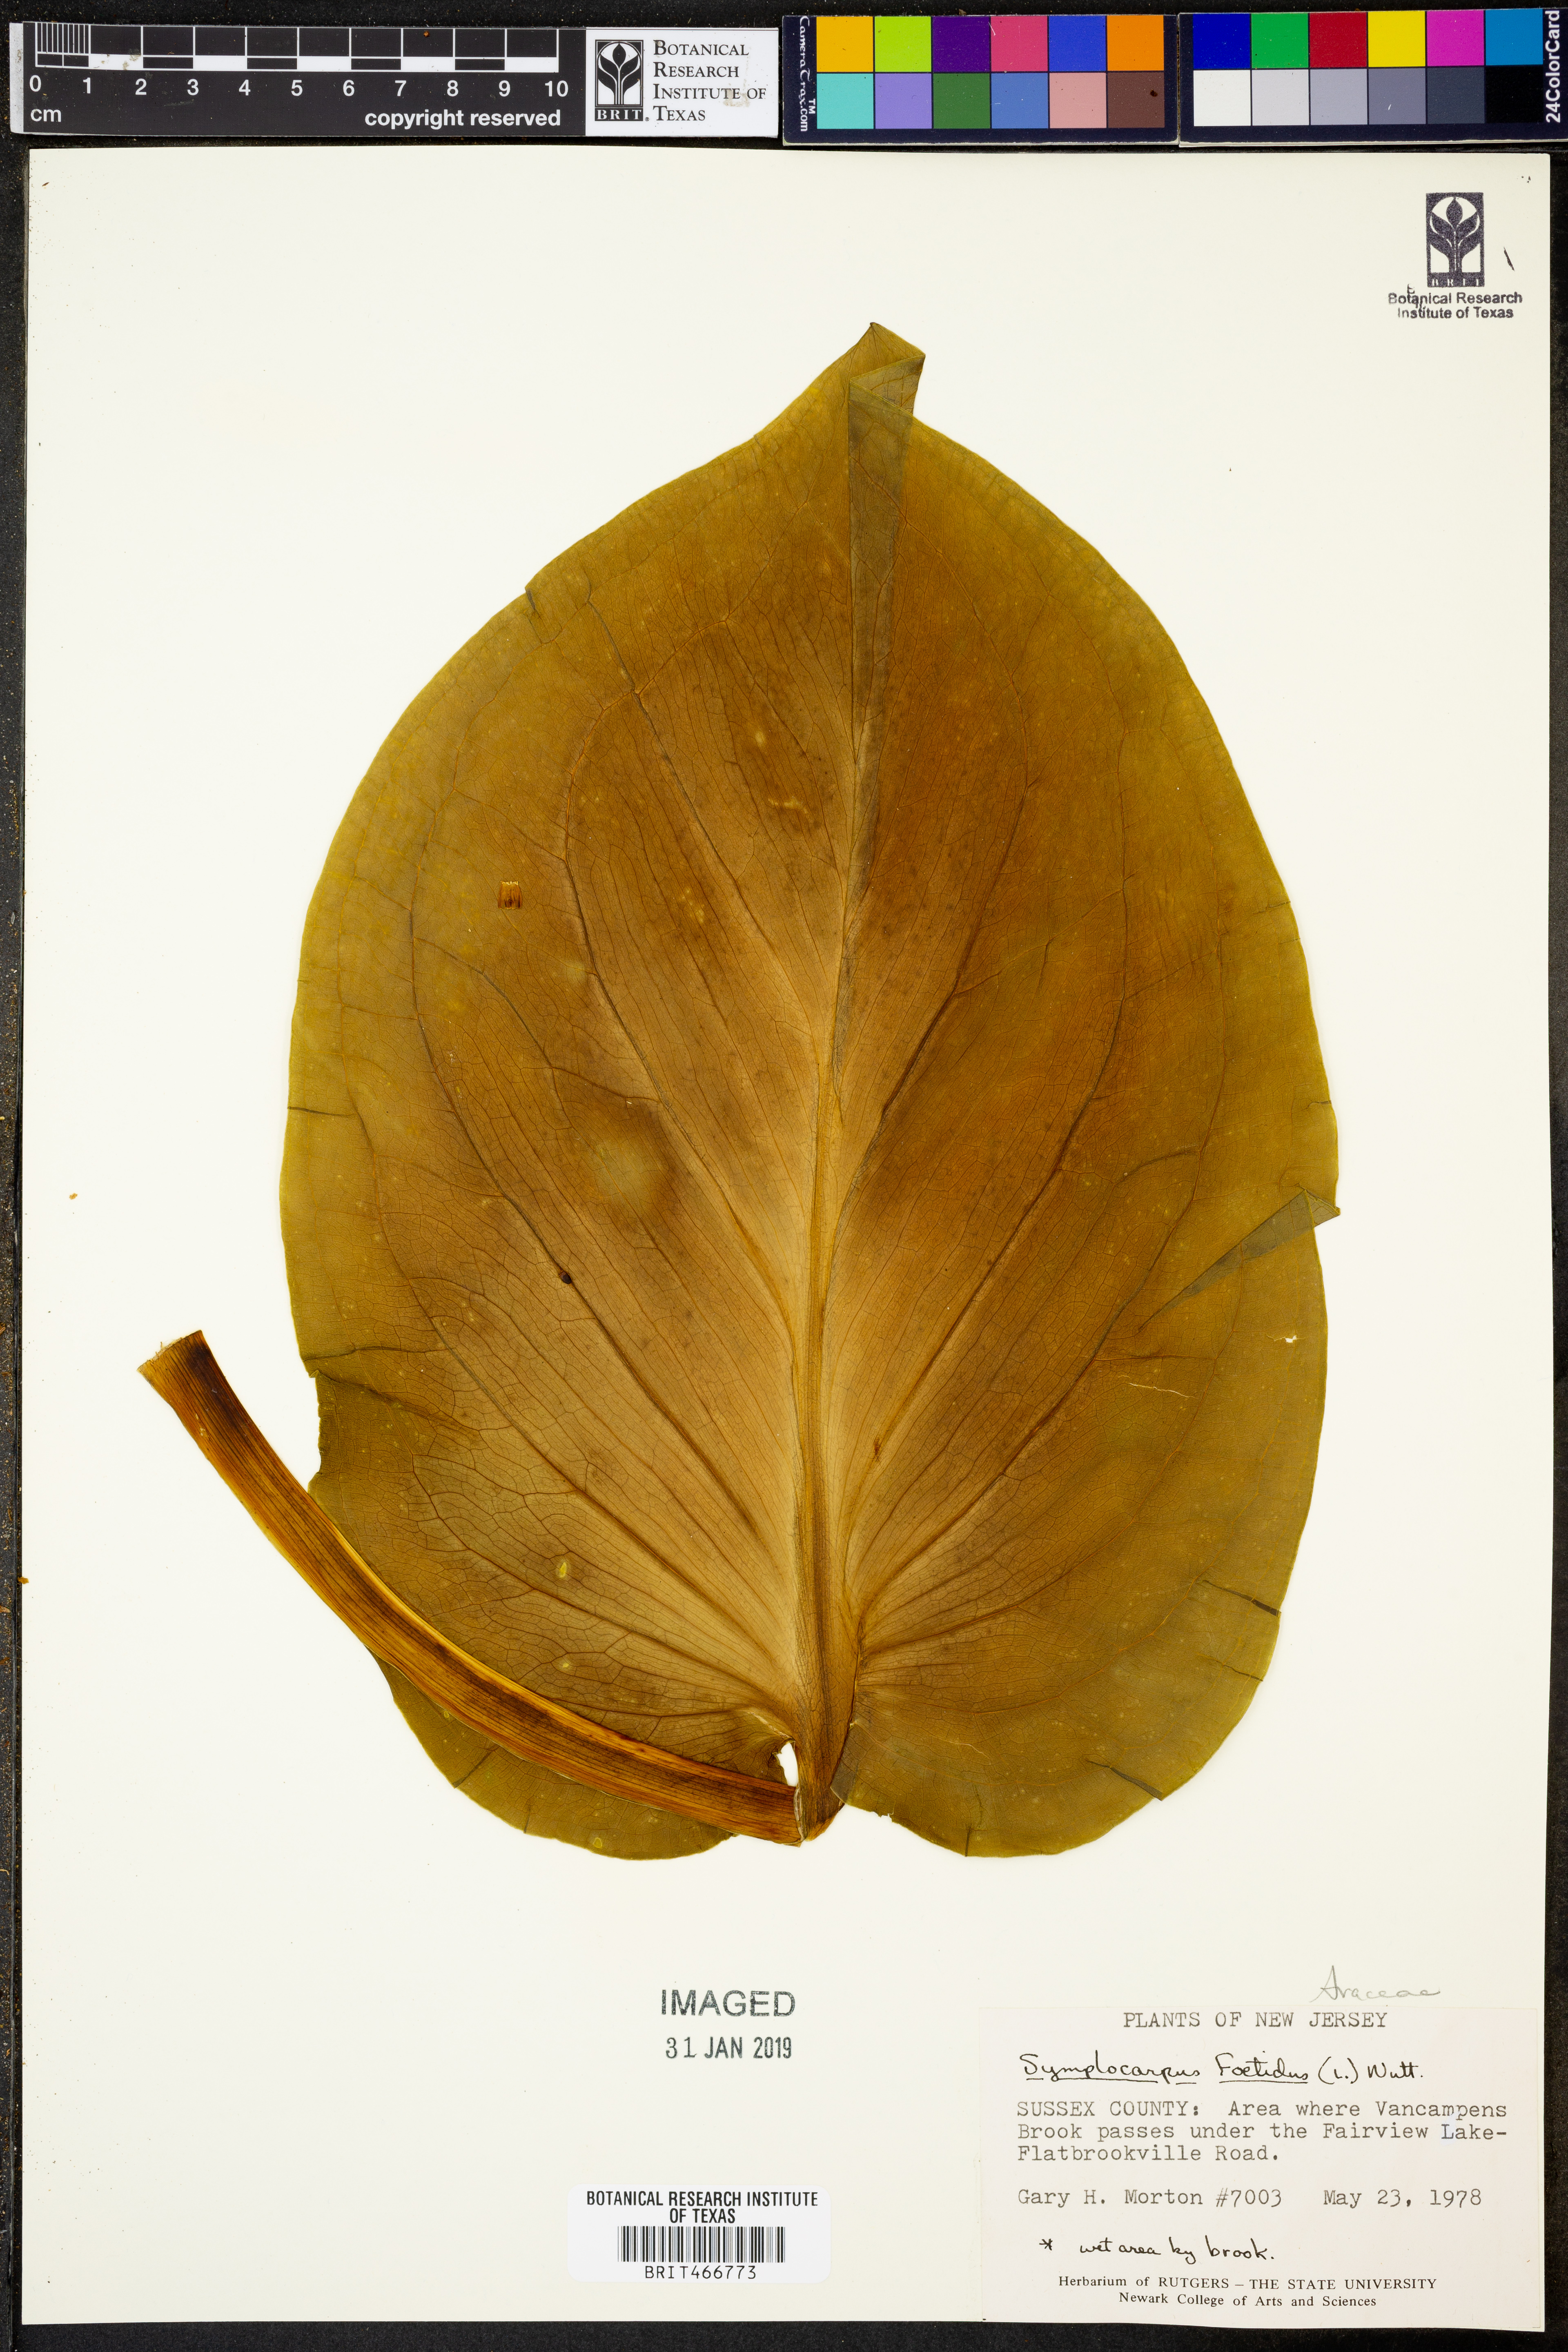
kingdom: Plantae
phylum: Tracheophyta
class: Liliopsida
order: Alismatales
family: Araceae
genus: Symplocarpus
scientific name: Symplocarpus foetidus
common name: Eastern skunk cabbage
